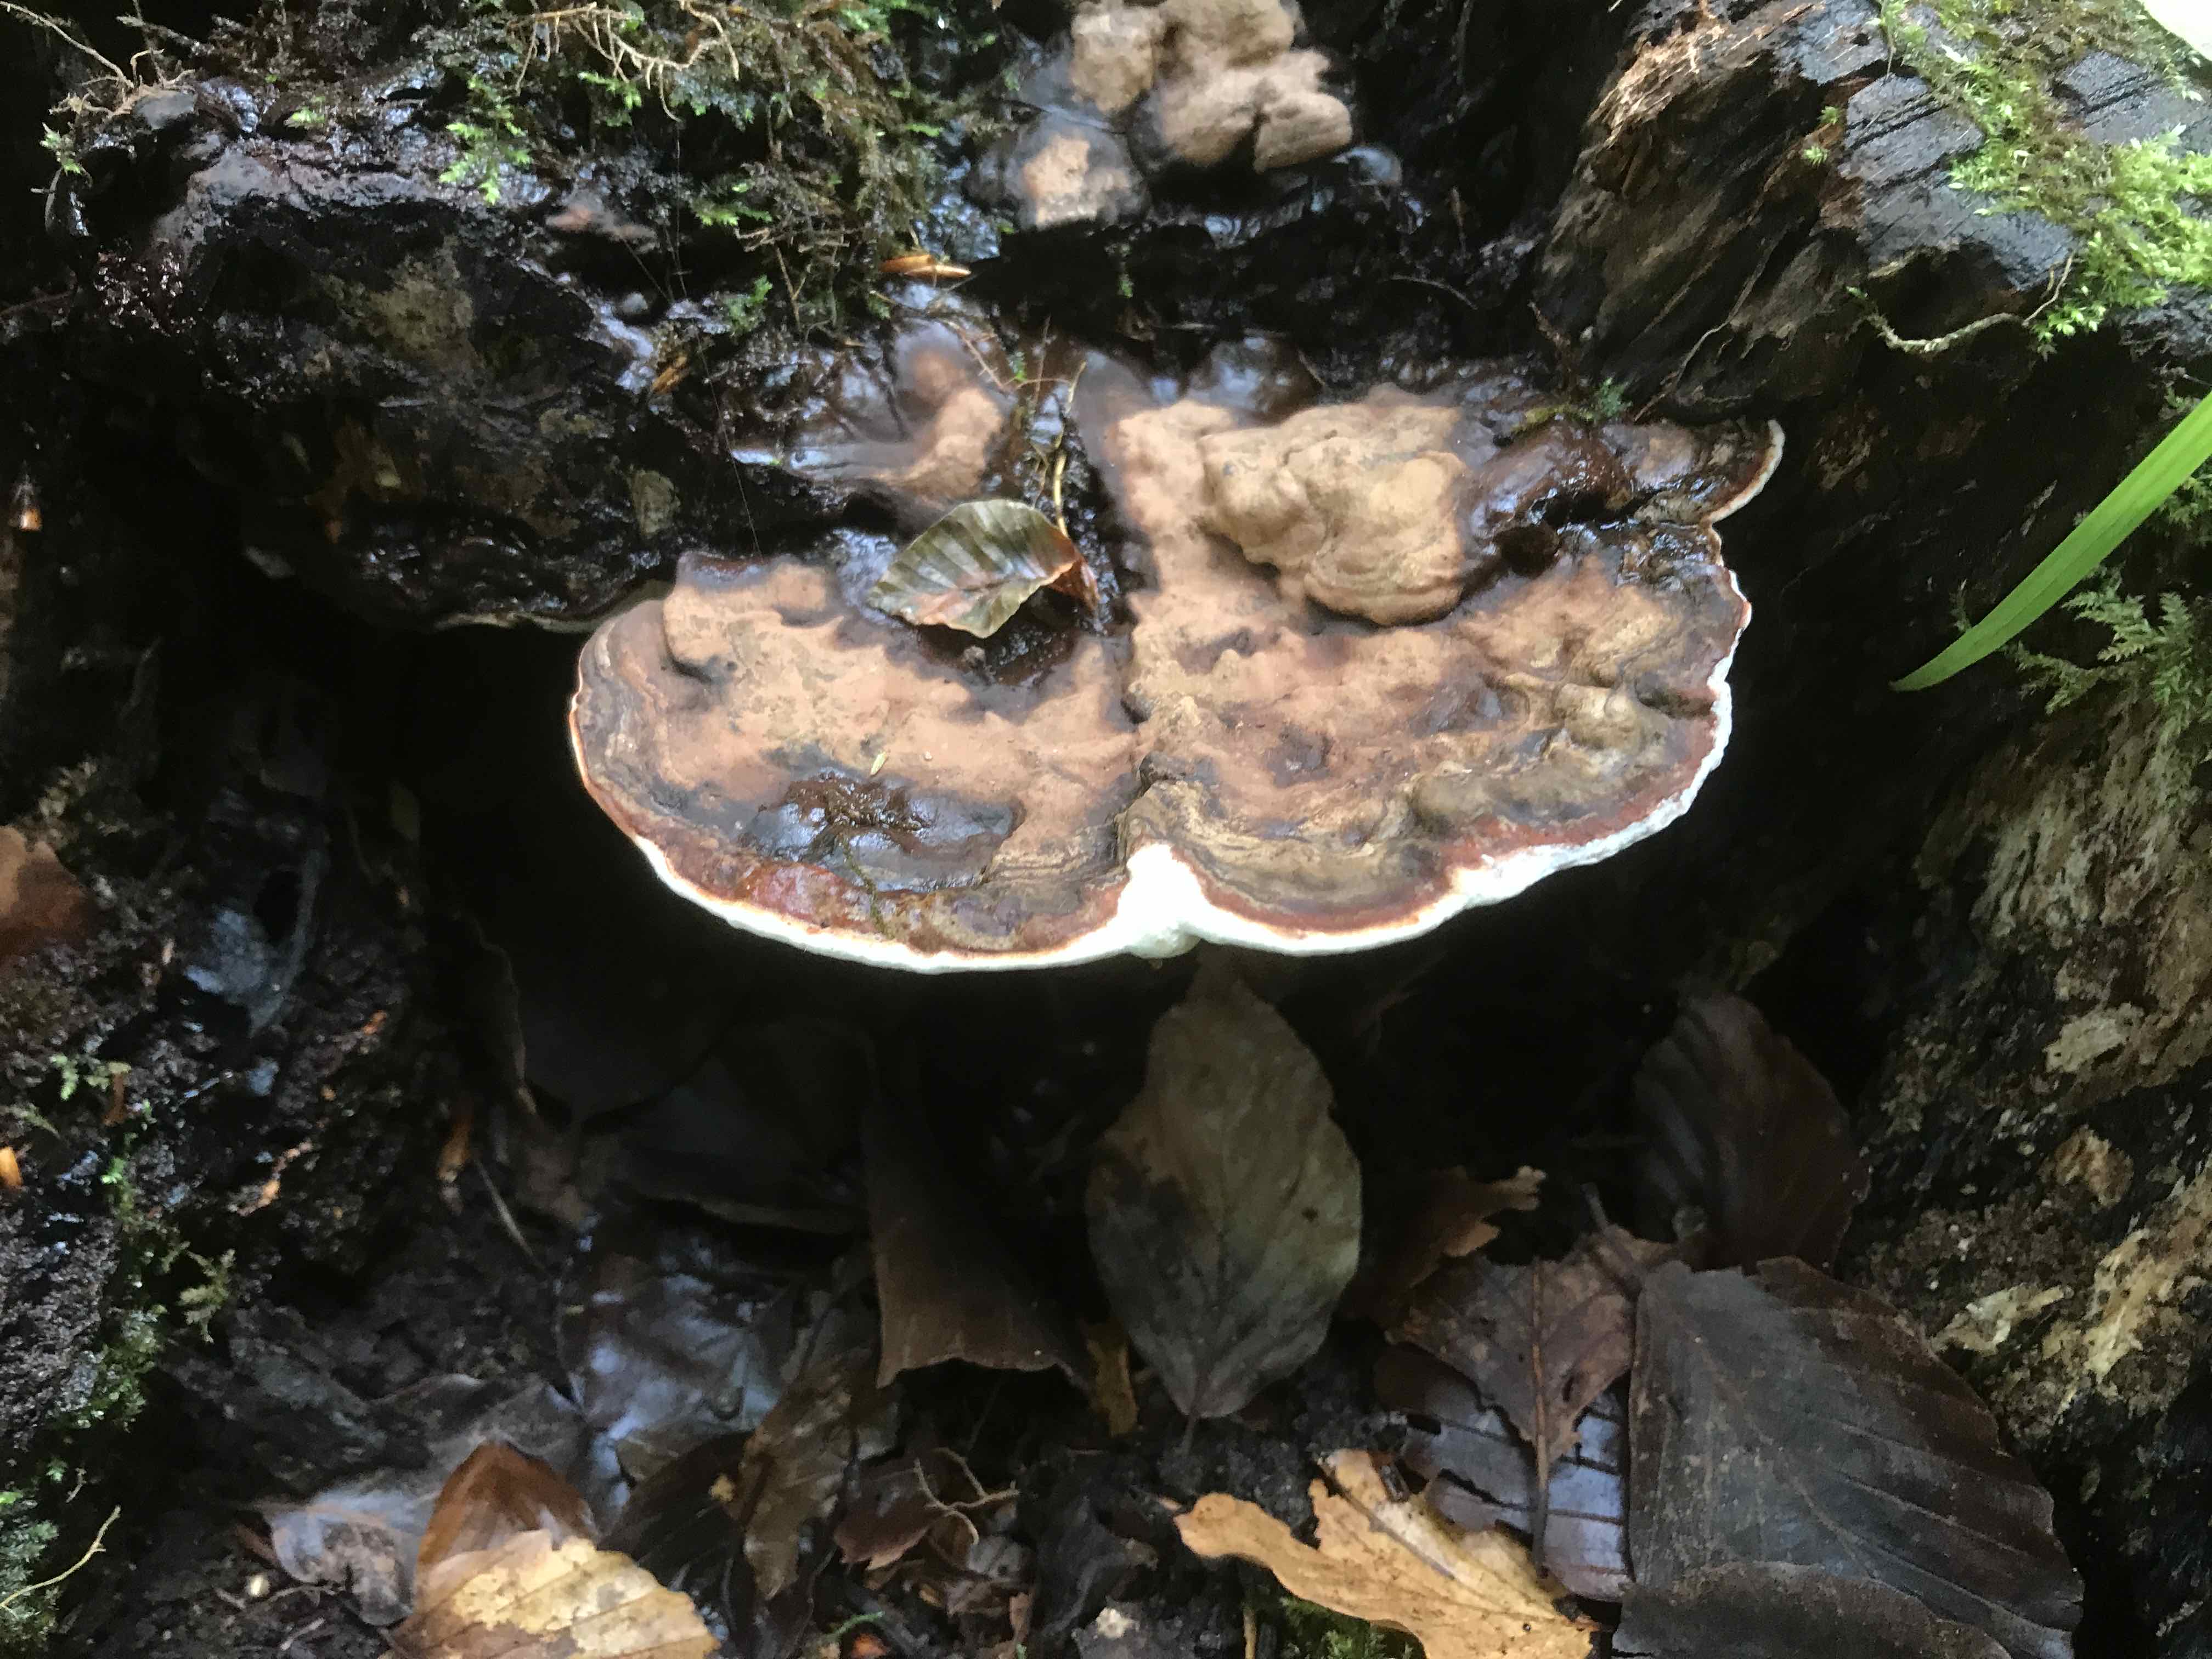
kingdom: Fungi
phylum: Basidiomycota
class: Agaricomycetes
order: Polyporales
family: Polyporaceae
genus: Ganoderma
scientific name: Ganoderma applanatum
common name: flad lakporesvamp
